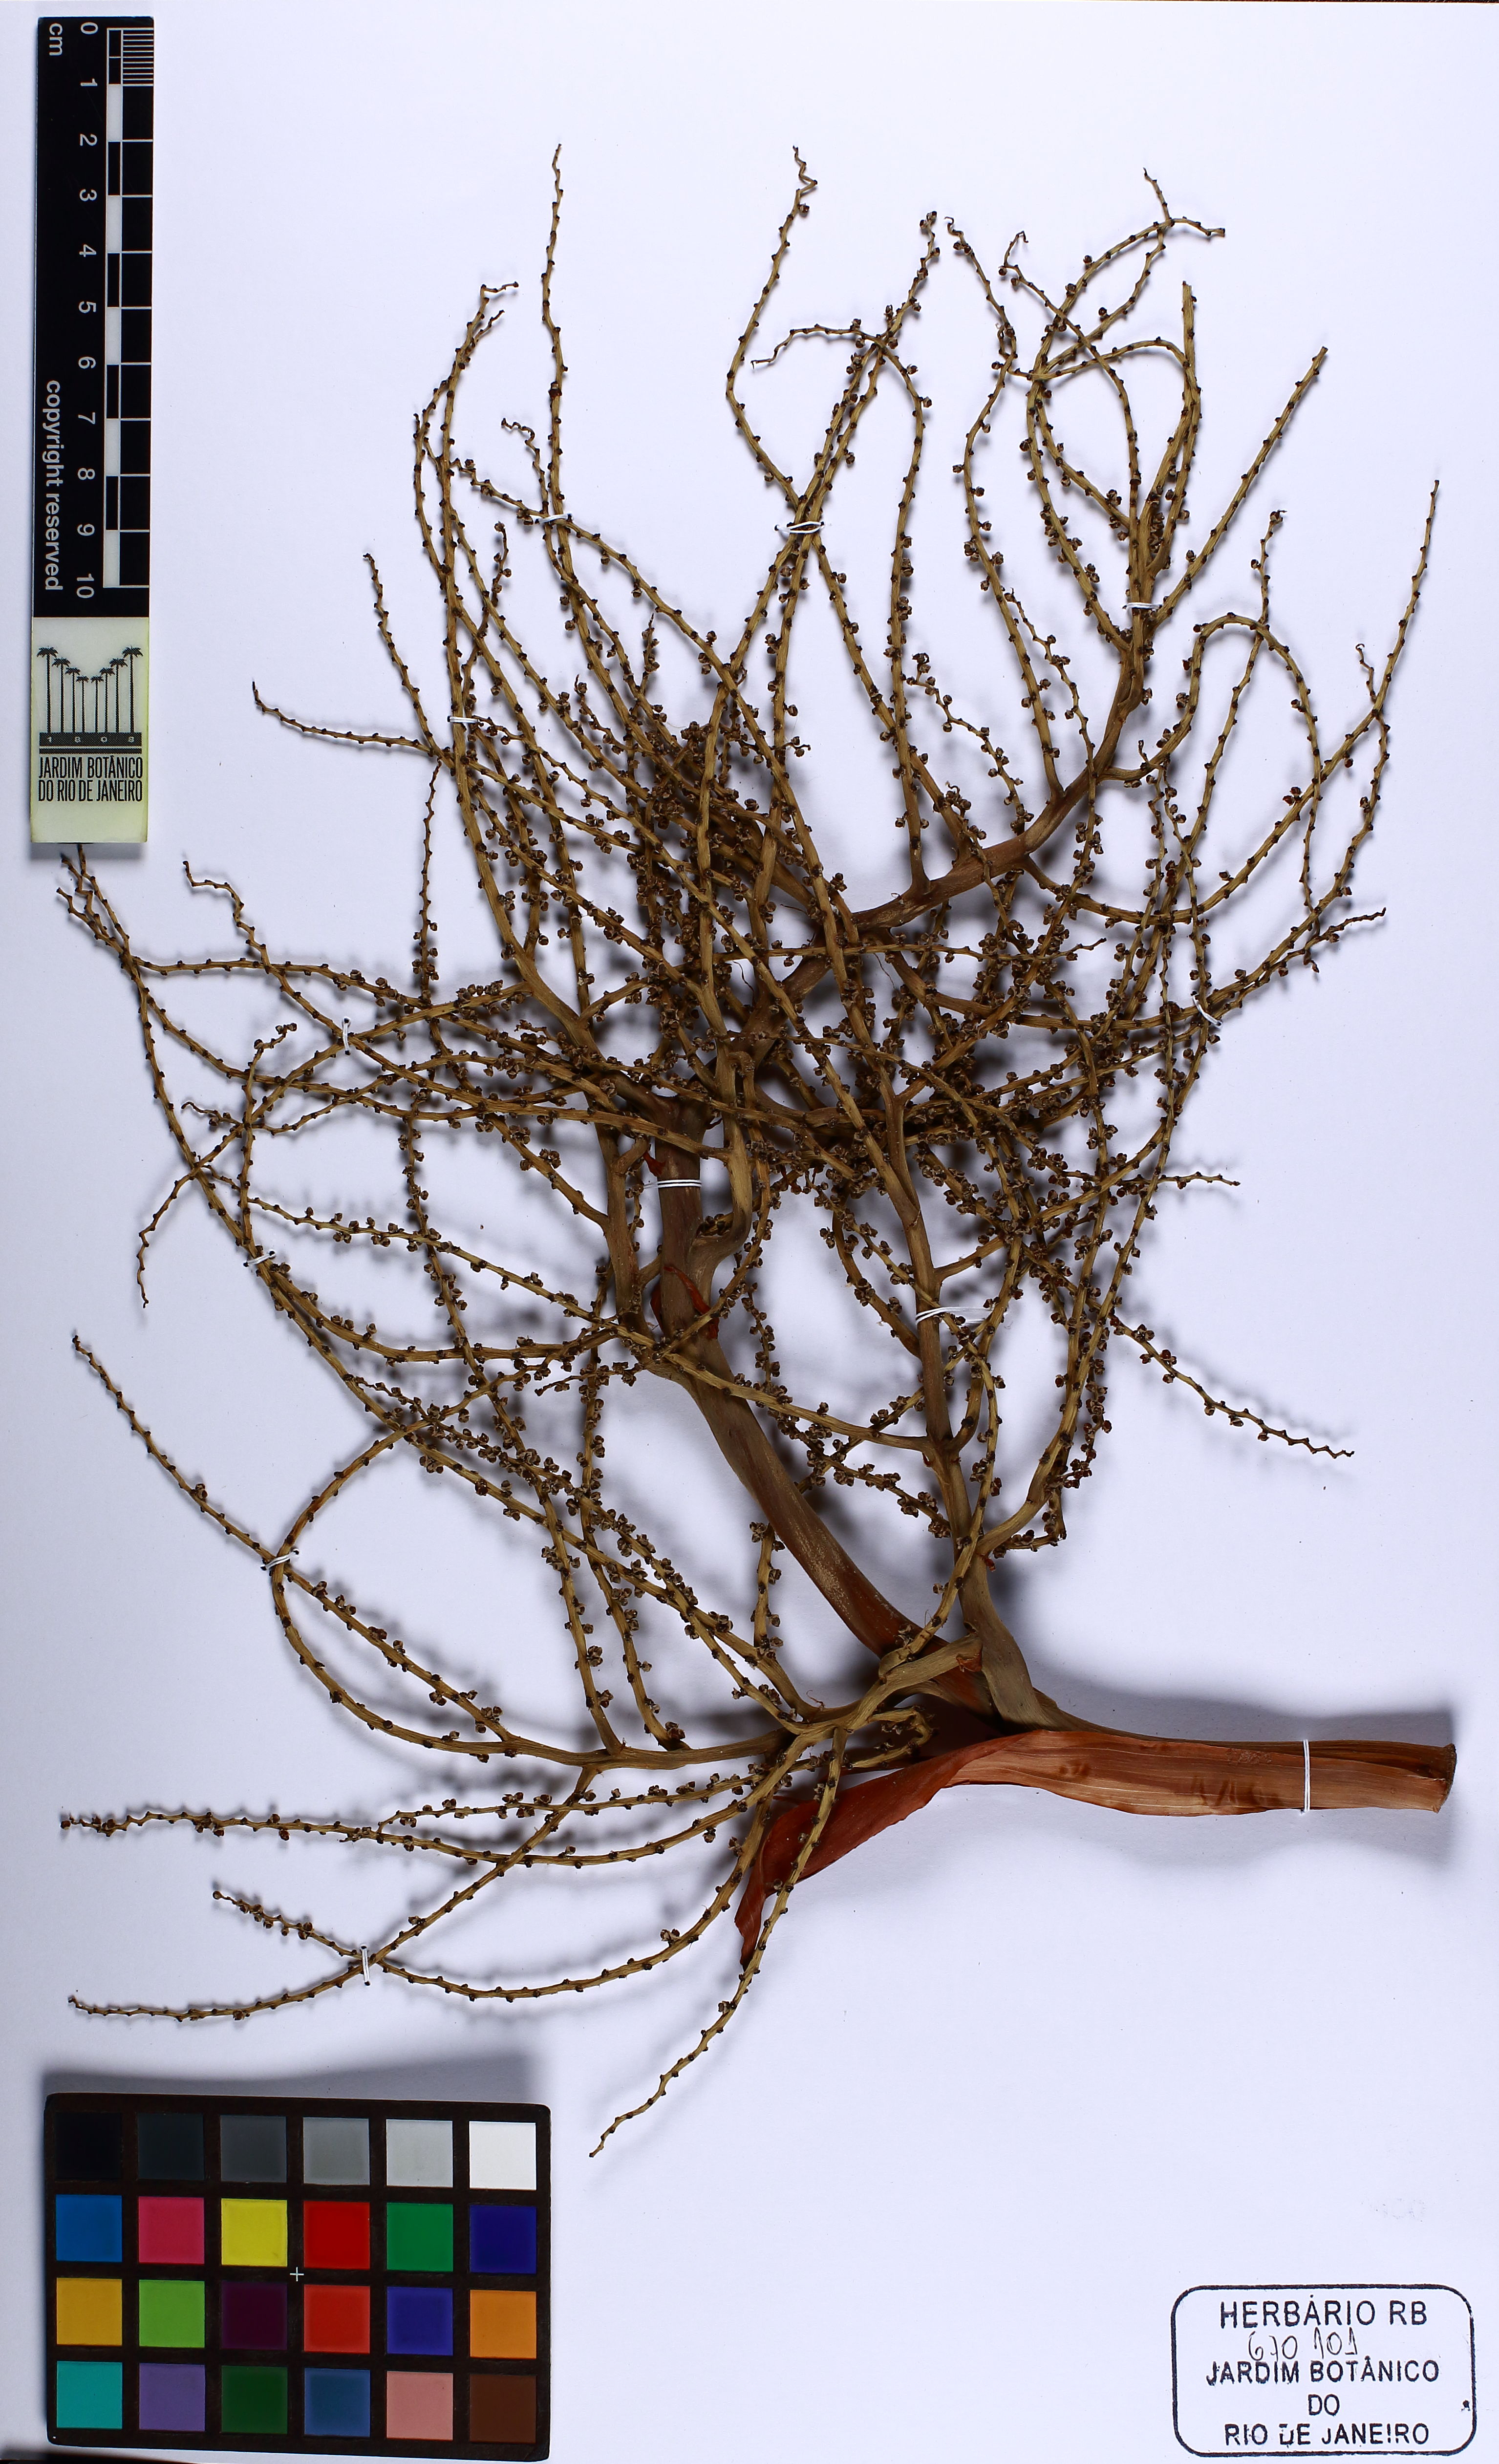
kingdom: Plantae
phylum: Tracheophyta
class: Liliopsida
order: Arecales
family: Arecaceae
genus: Livistona
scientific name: Livistona chinensis
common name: Fountain palm
